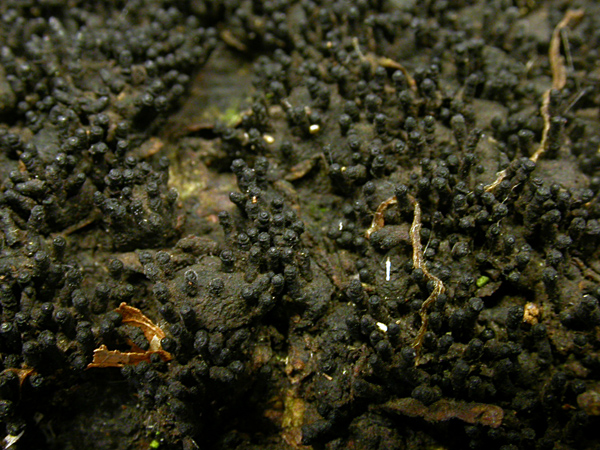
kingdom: Fungi
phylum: Ascomycota
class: Sordariomycetes
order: Xylariales
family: Melogrammataceae
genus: Melogramma
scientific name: Melogramma spiniferum
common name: bøgefod-kulhals
